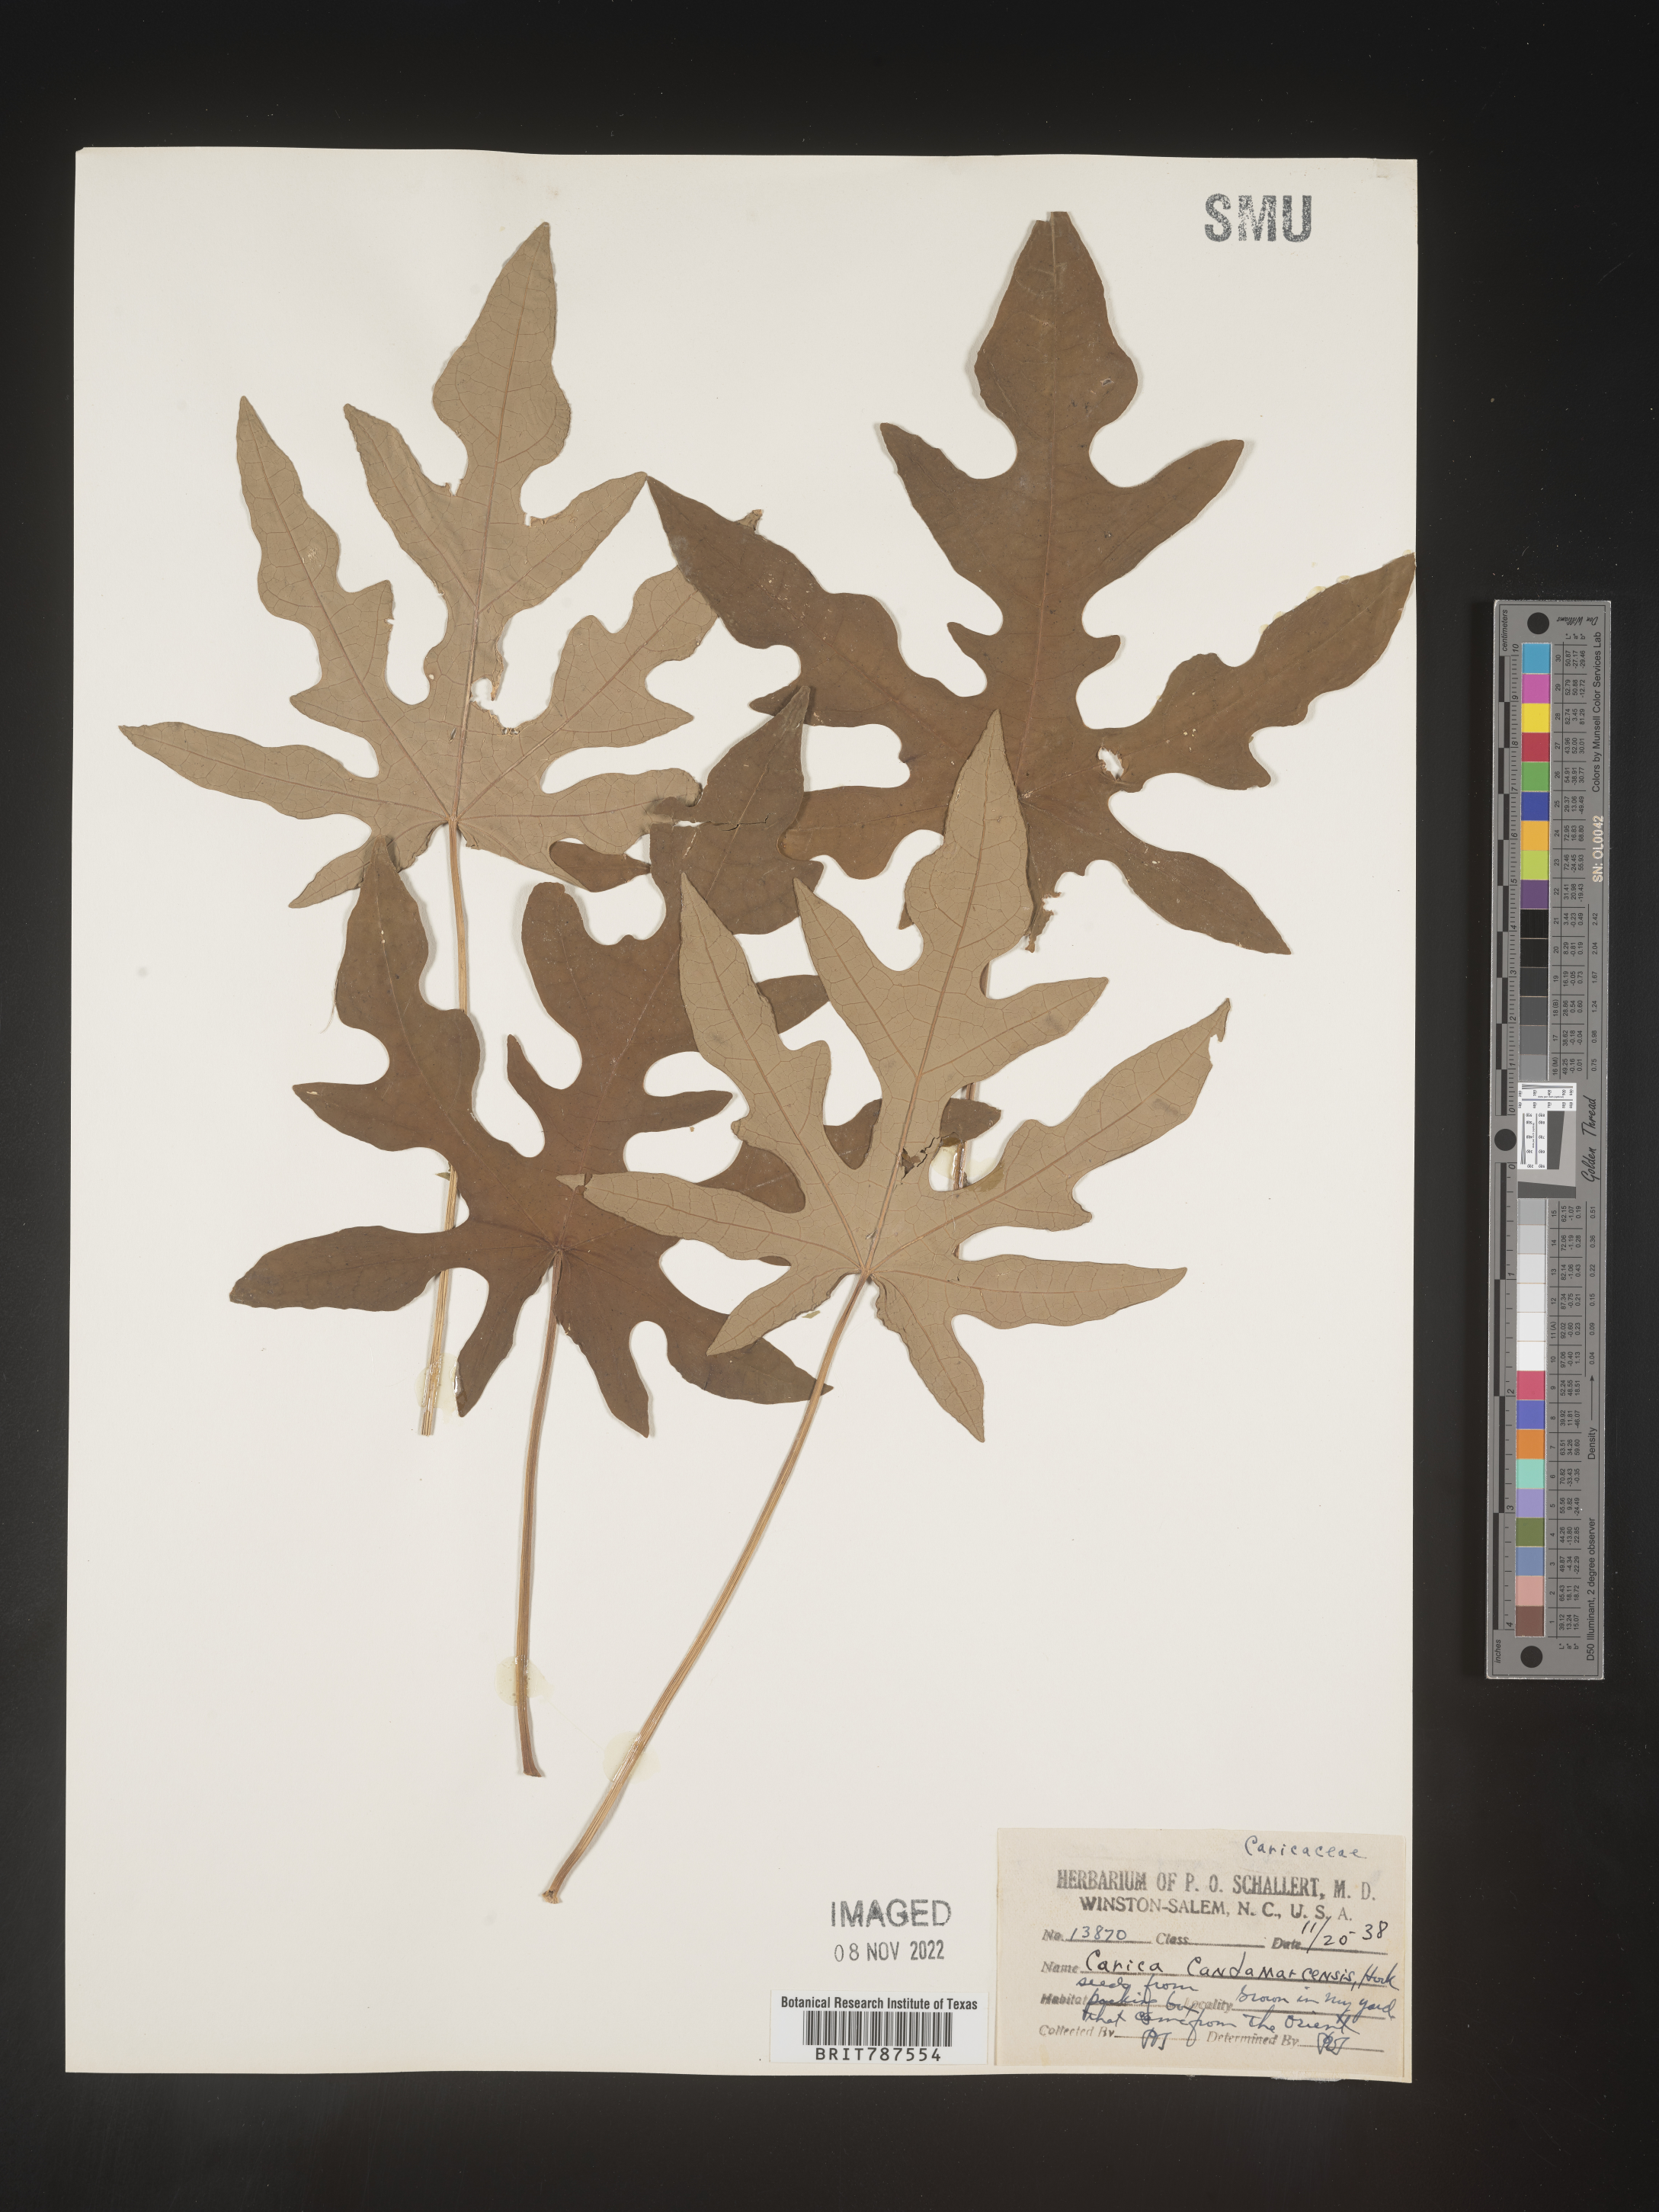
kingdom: Plantae
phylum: Tracheophyta
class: Magnoliopsida
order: Brassicales
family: Caricaceae
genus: Carica
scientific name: Carica
